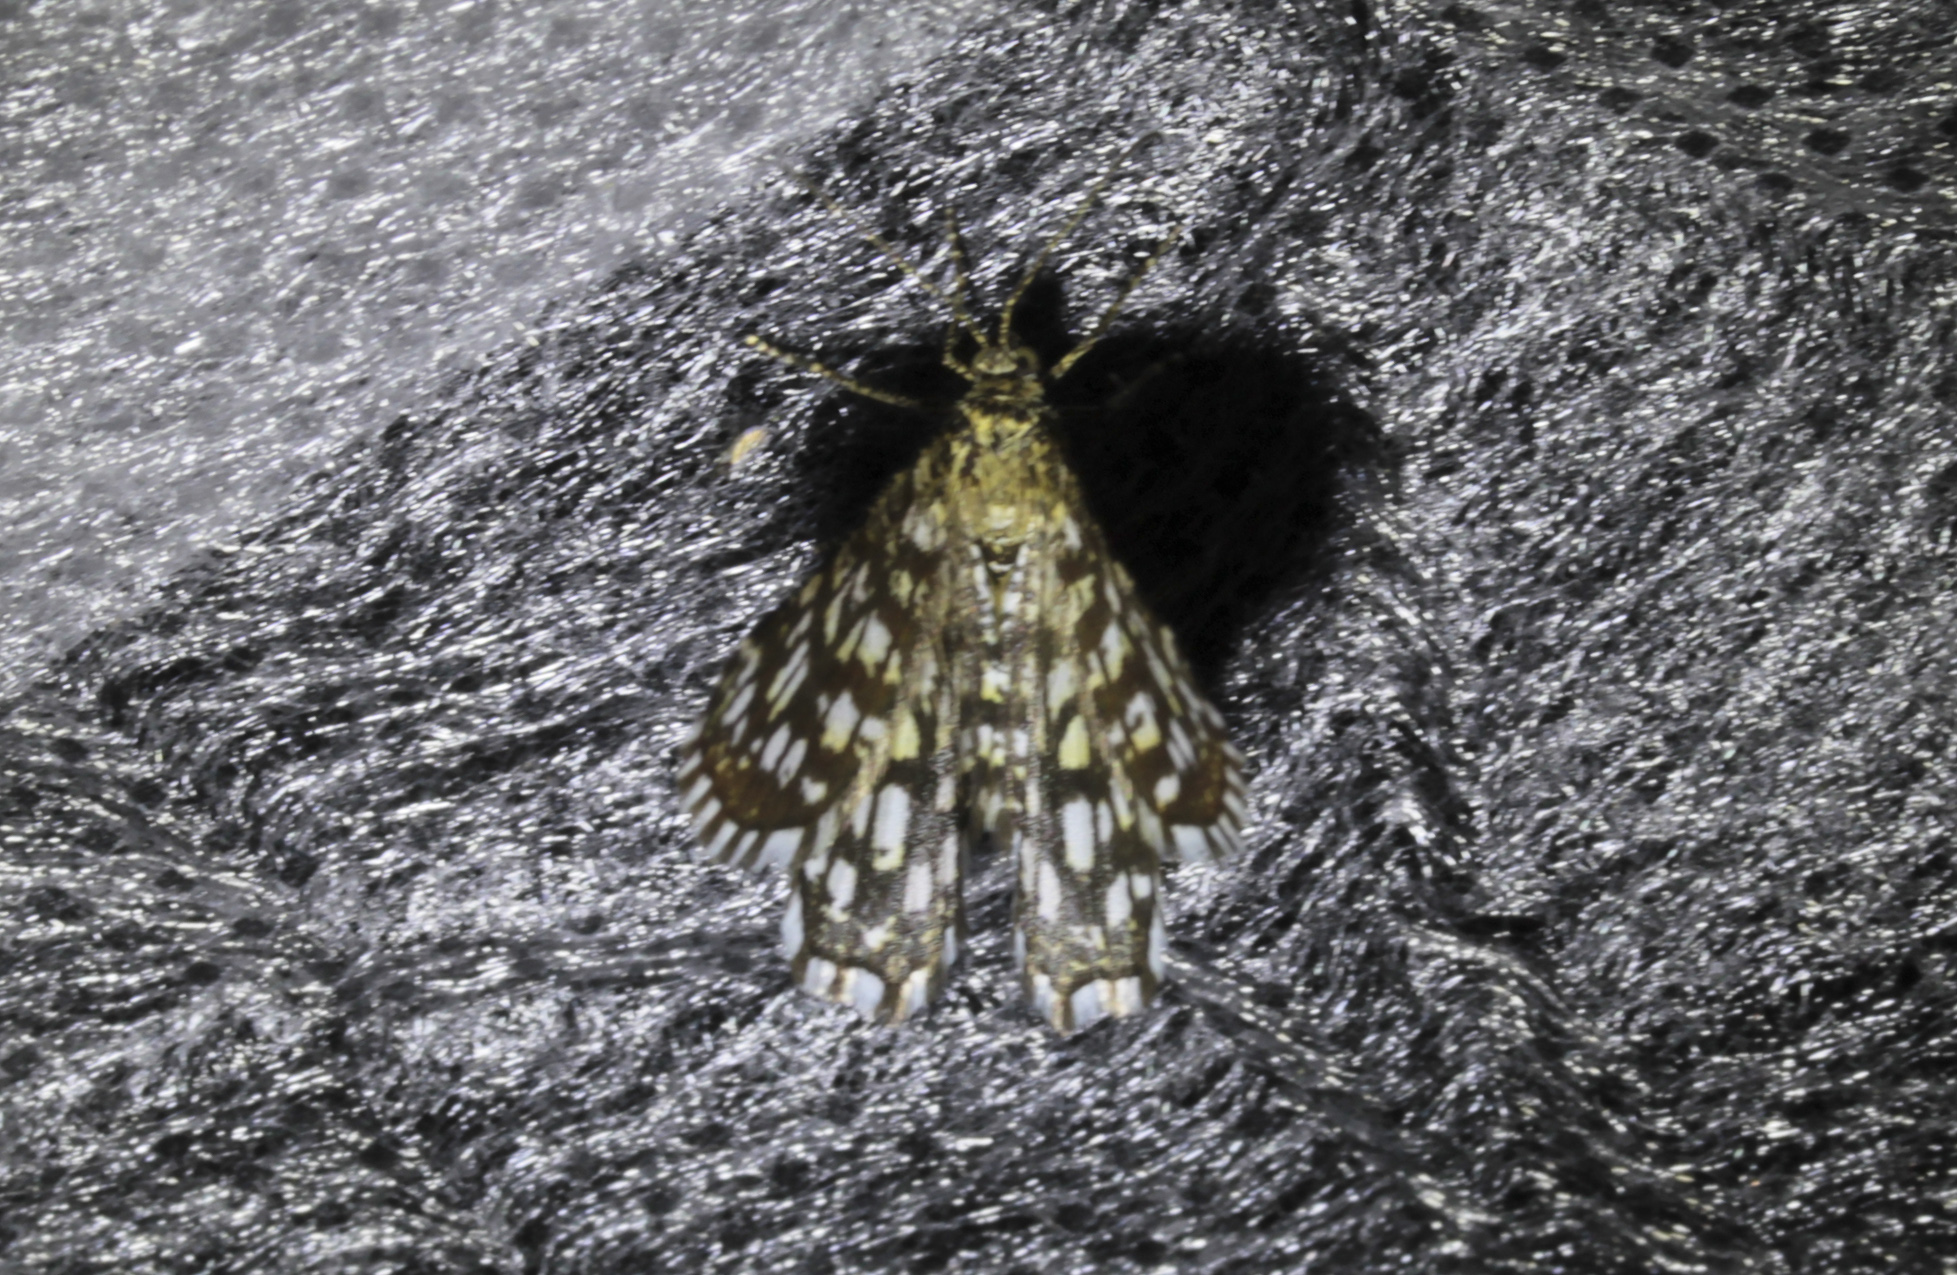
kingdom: Animalia
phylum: Arthropoda
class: Insecta
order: Lepidoptera
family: Geometridae
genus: Chiasmia
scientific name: Chiasmia clathrata
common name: Latticed heath
